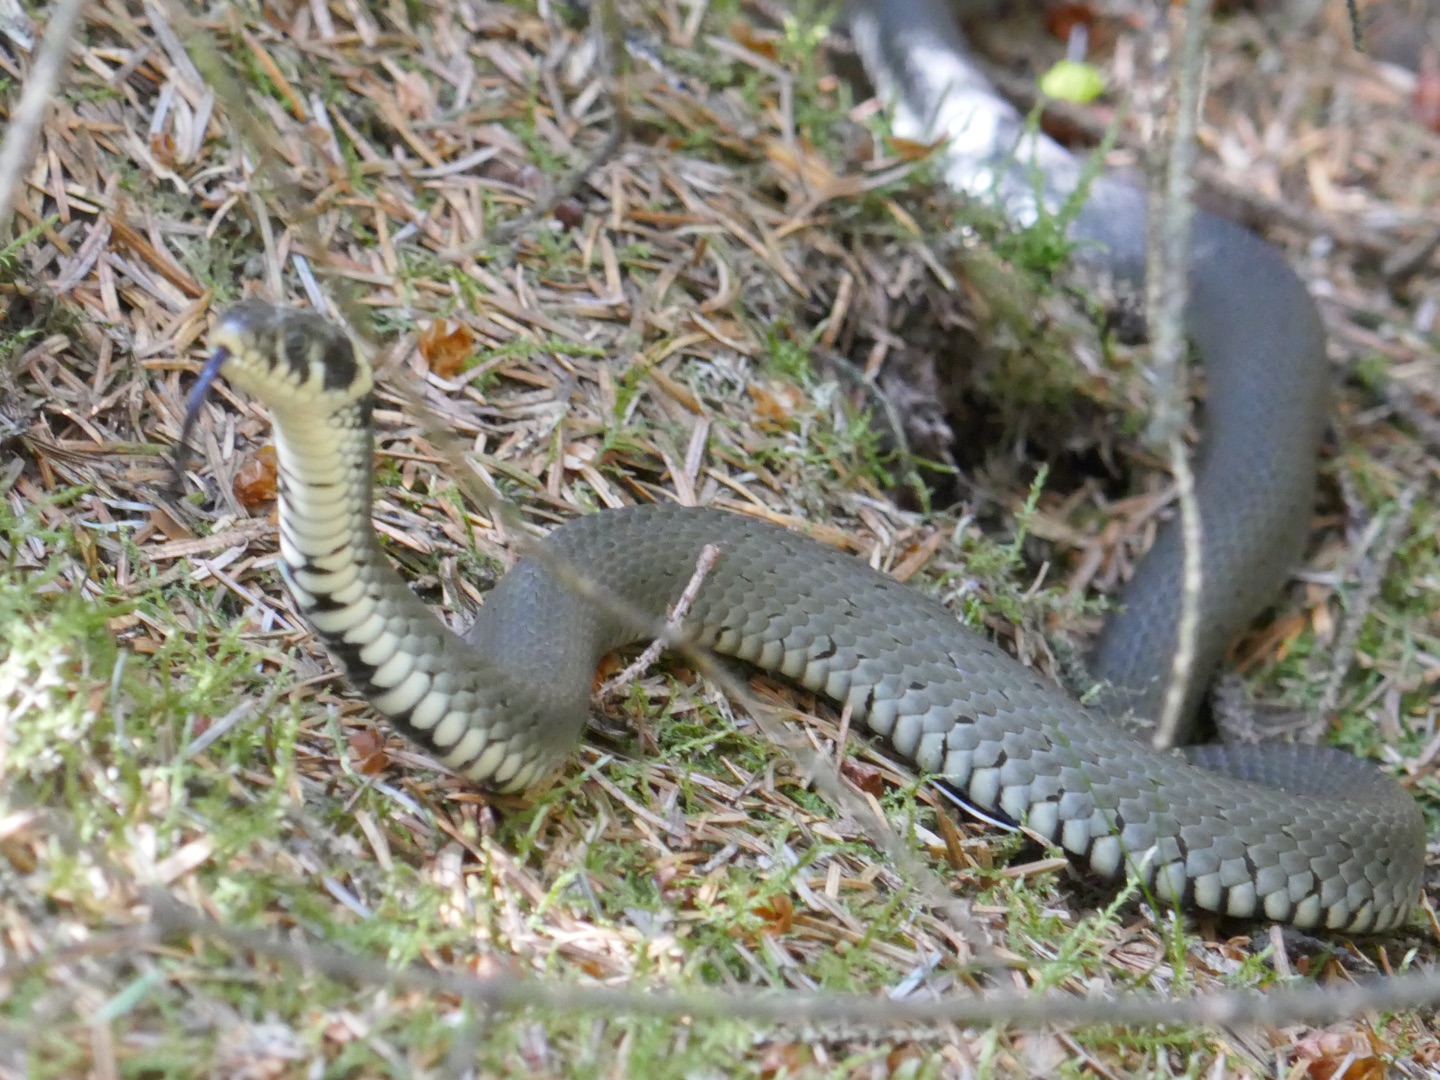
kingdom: Animalia
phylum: Chordata
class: Squamata
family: Colubridae
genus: Natrix
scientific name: Natrix natrix
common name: Snog
